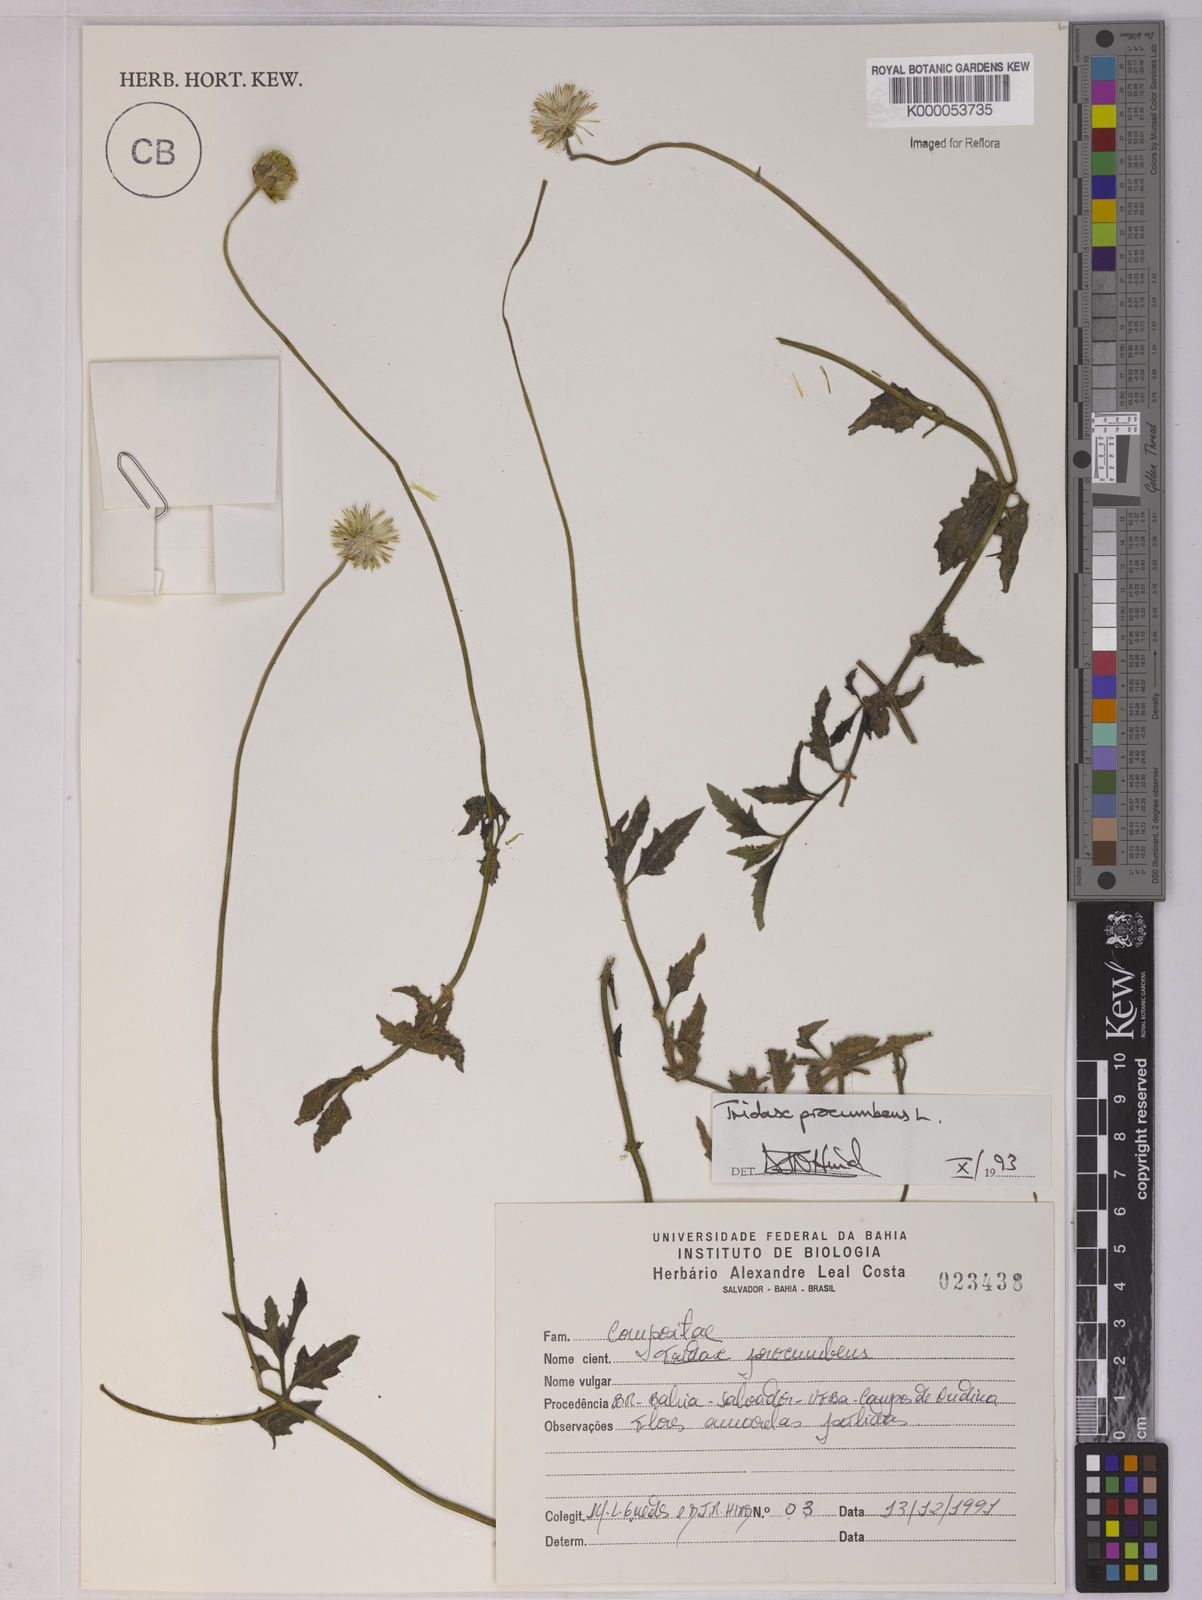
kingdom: Plantae
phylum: Tracheophyta
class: Magnoliopsida
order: Asterales
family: Asteraceae
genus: Tridax
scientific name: Tridax procumbens
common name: Coatbuttons
